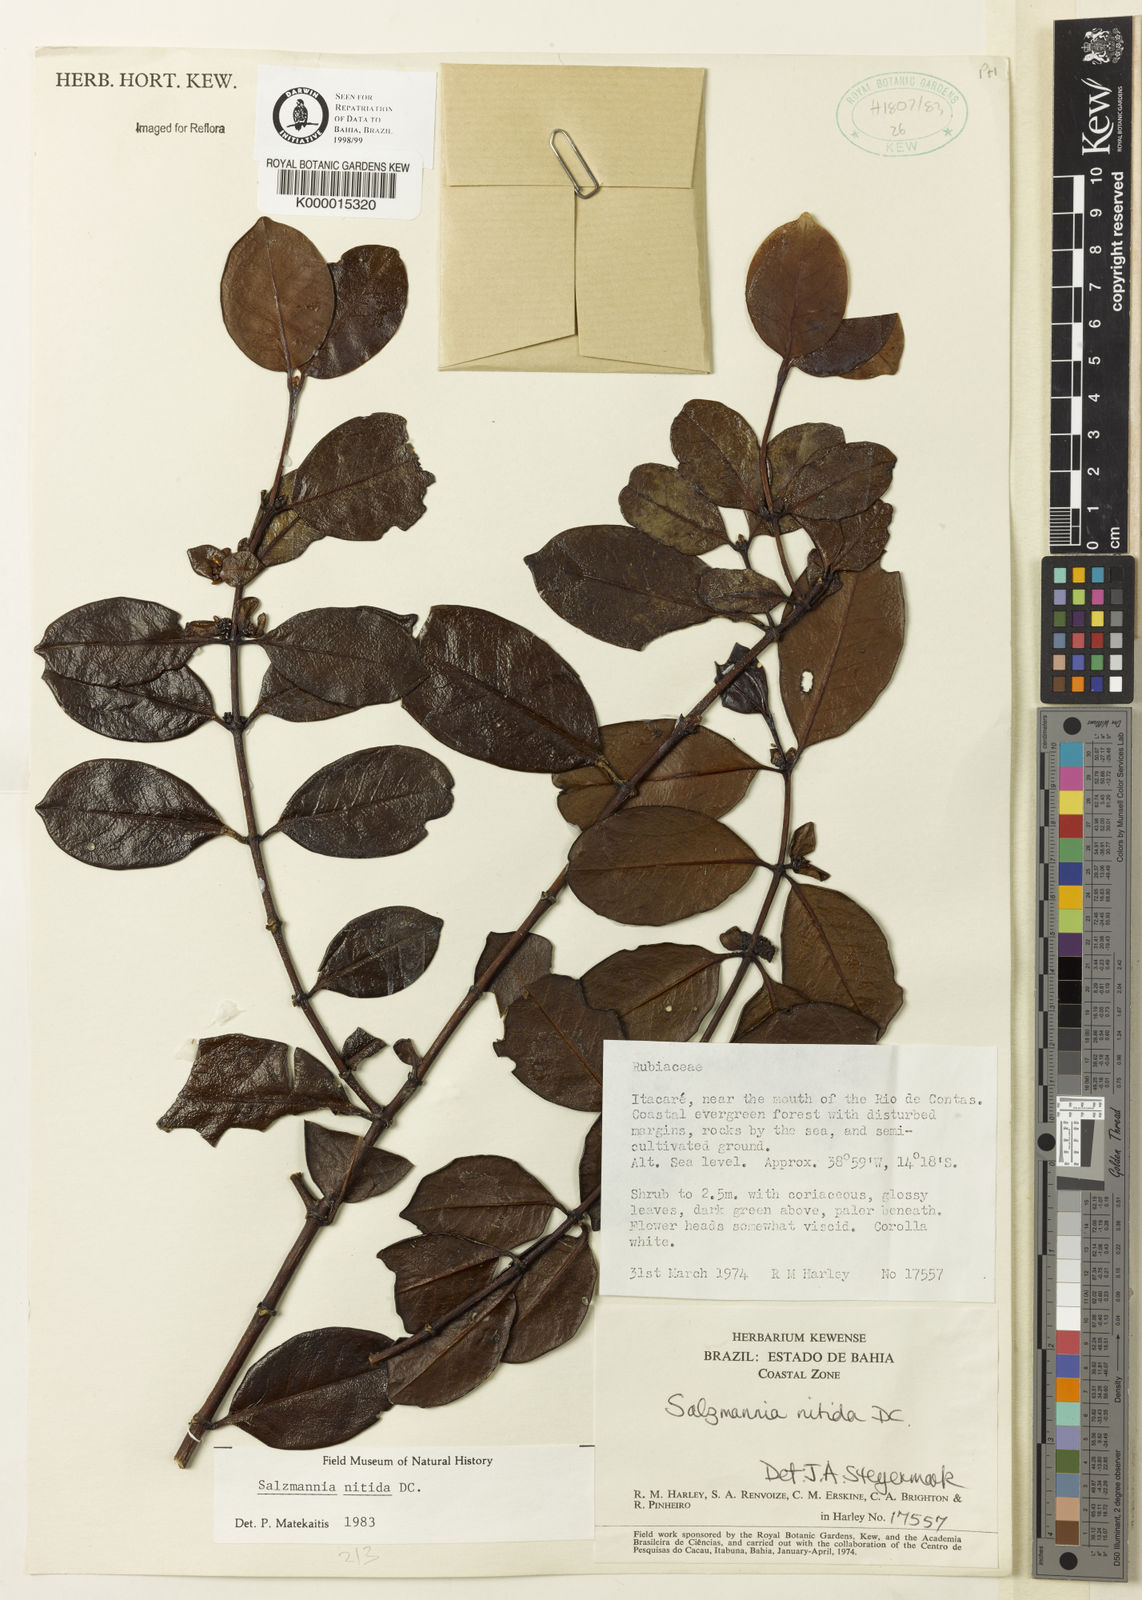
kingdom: Plantae
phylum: Tracheophyta
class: Magnoliopsida
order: Gentianales
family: Rubiaceae
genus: Salzmannia
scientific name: Salzmannia nitida
